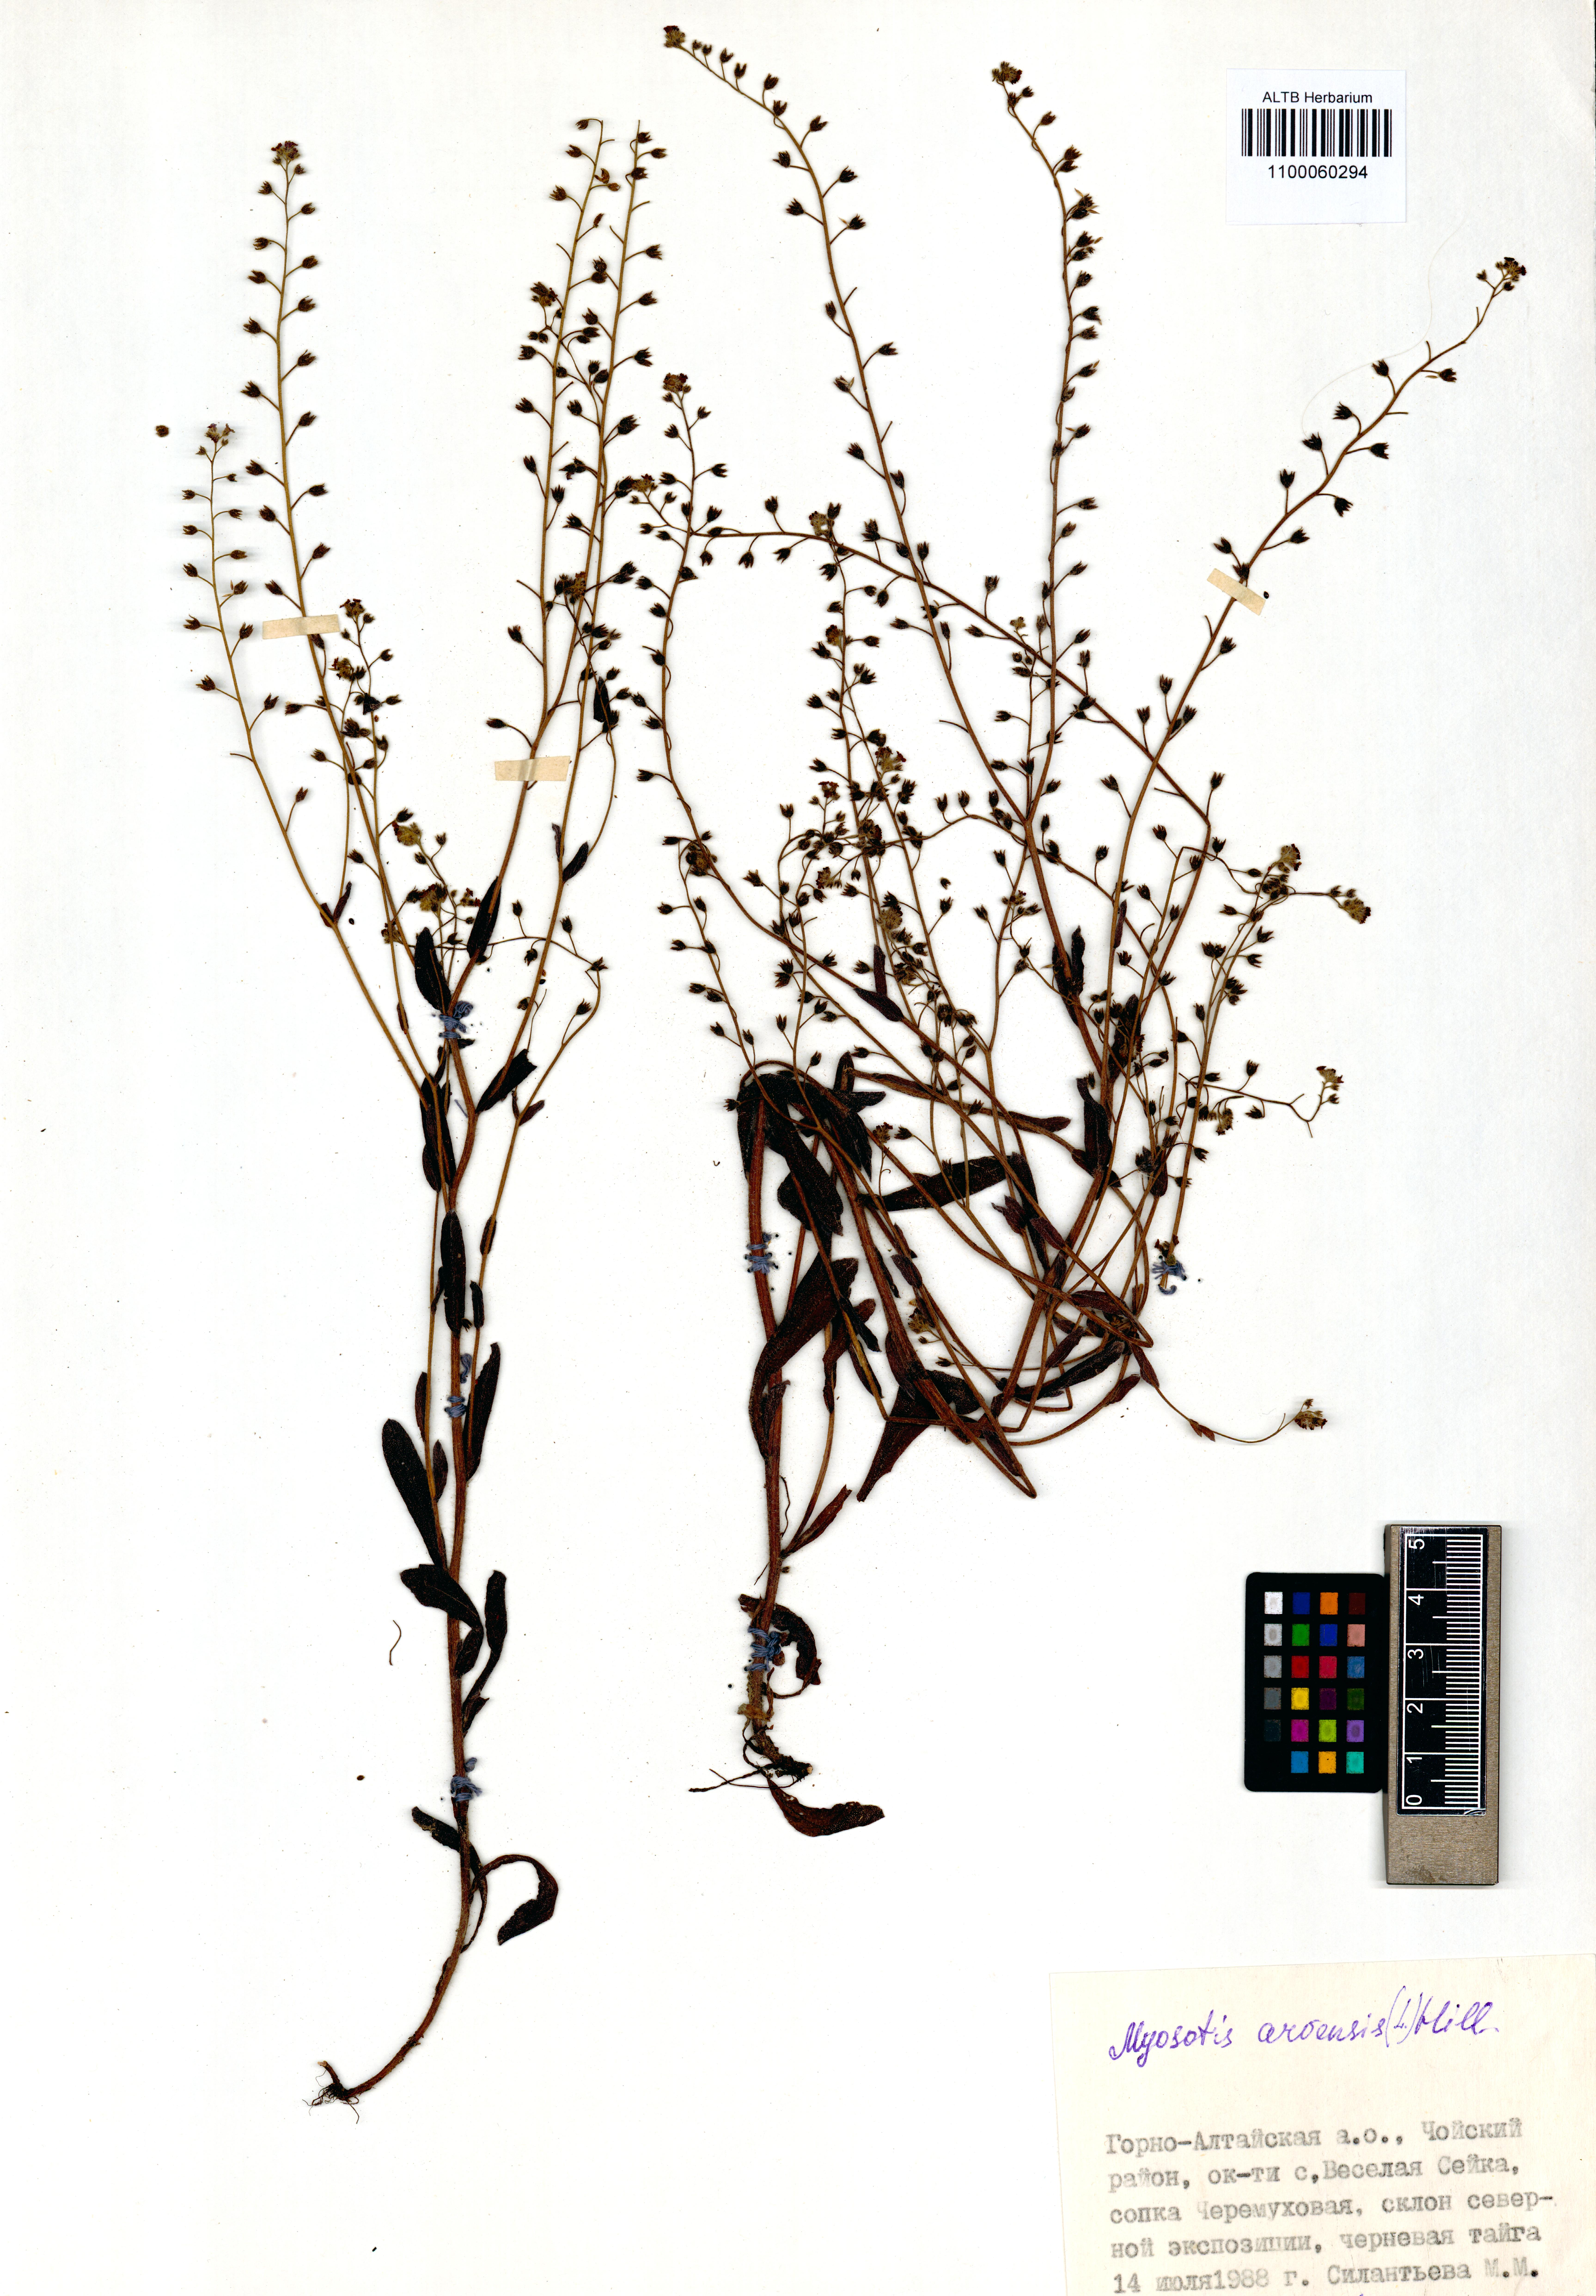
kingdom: Plantae
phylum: Tracheophyta
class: Magnoliopsida
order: Boraginales
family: Boraginaceae
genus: Myosotis
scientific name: Myosotis arvensis
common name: Field forget-me-not
